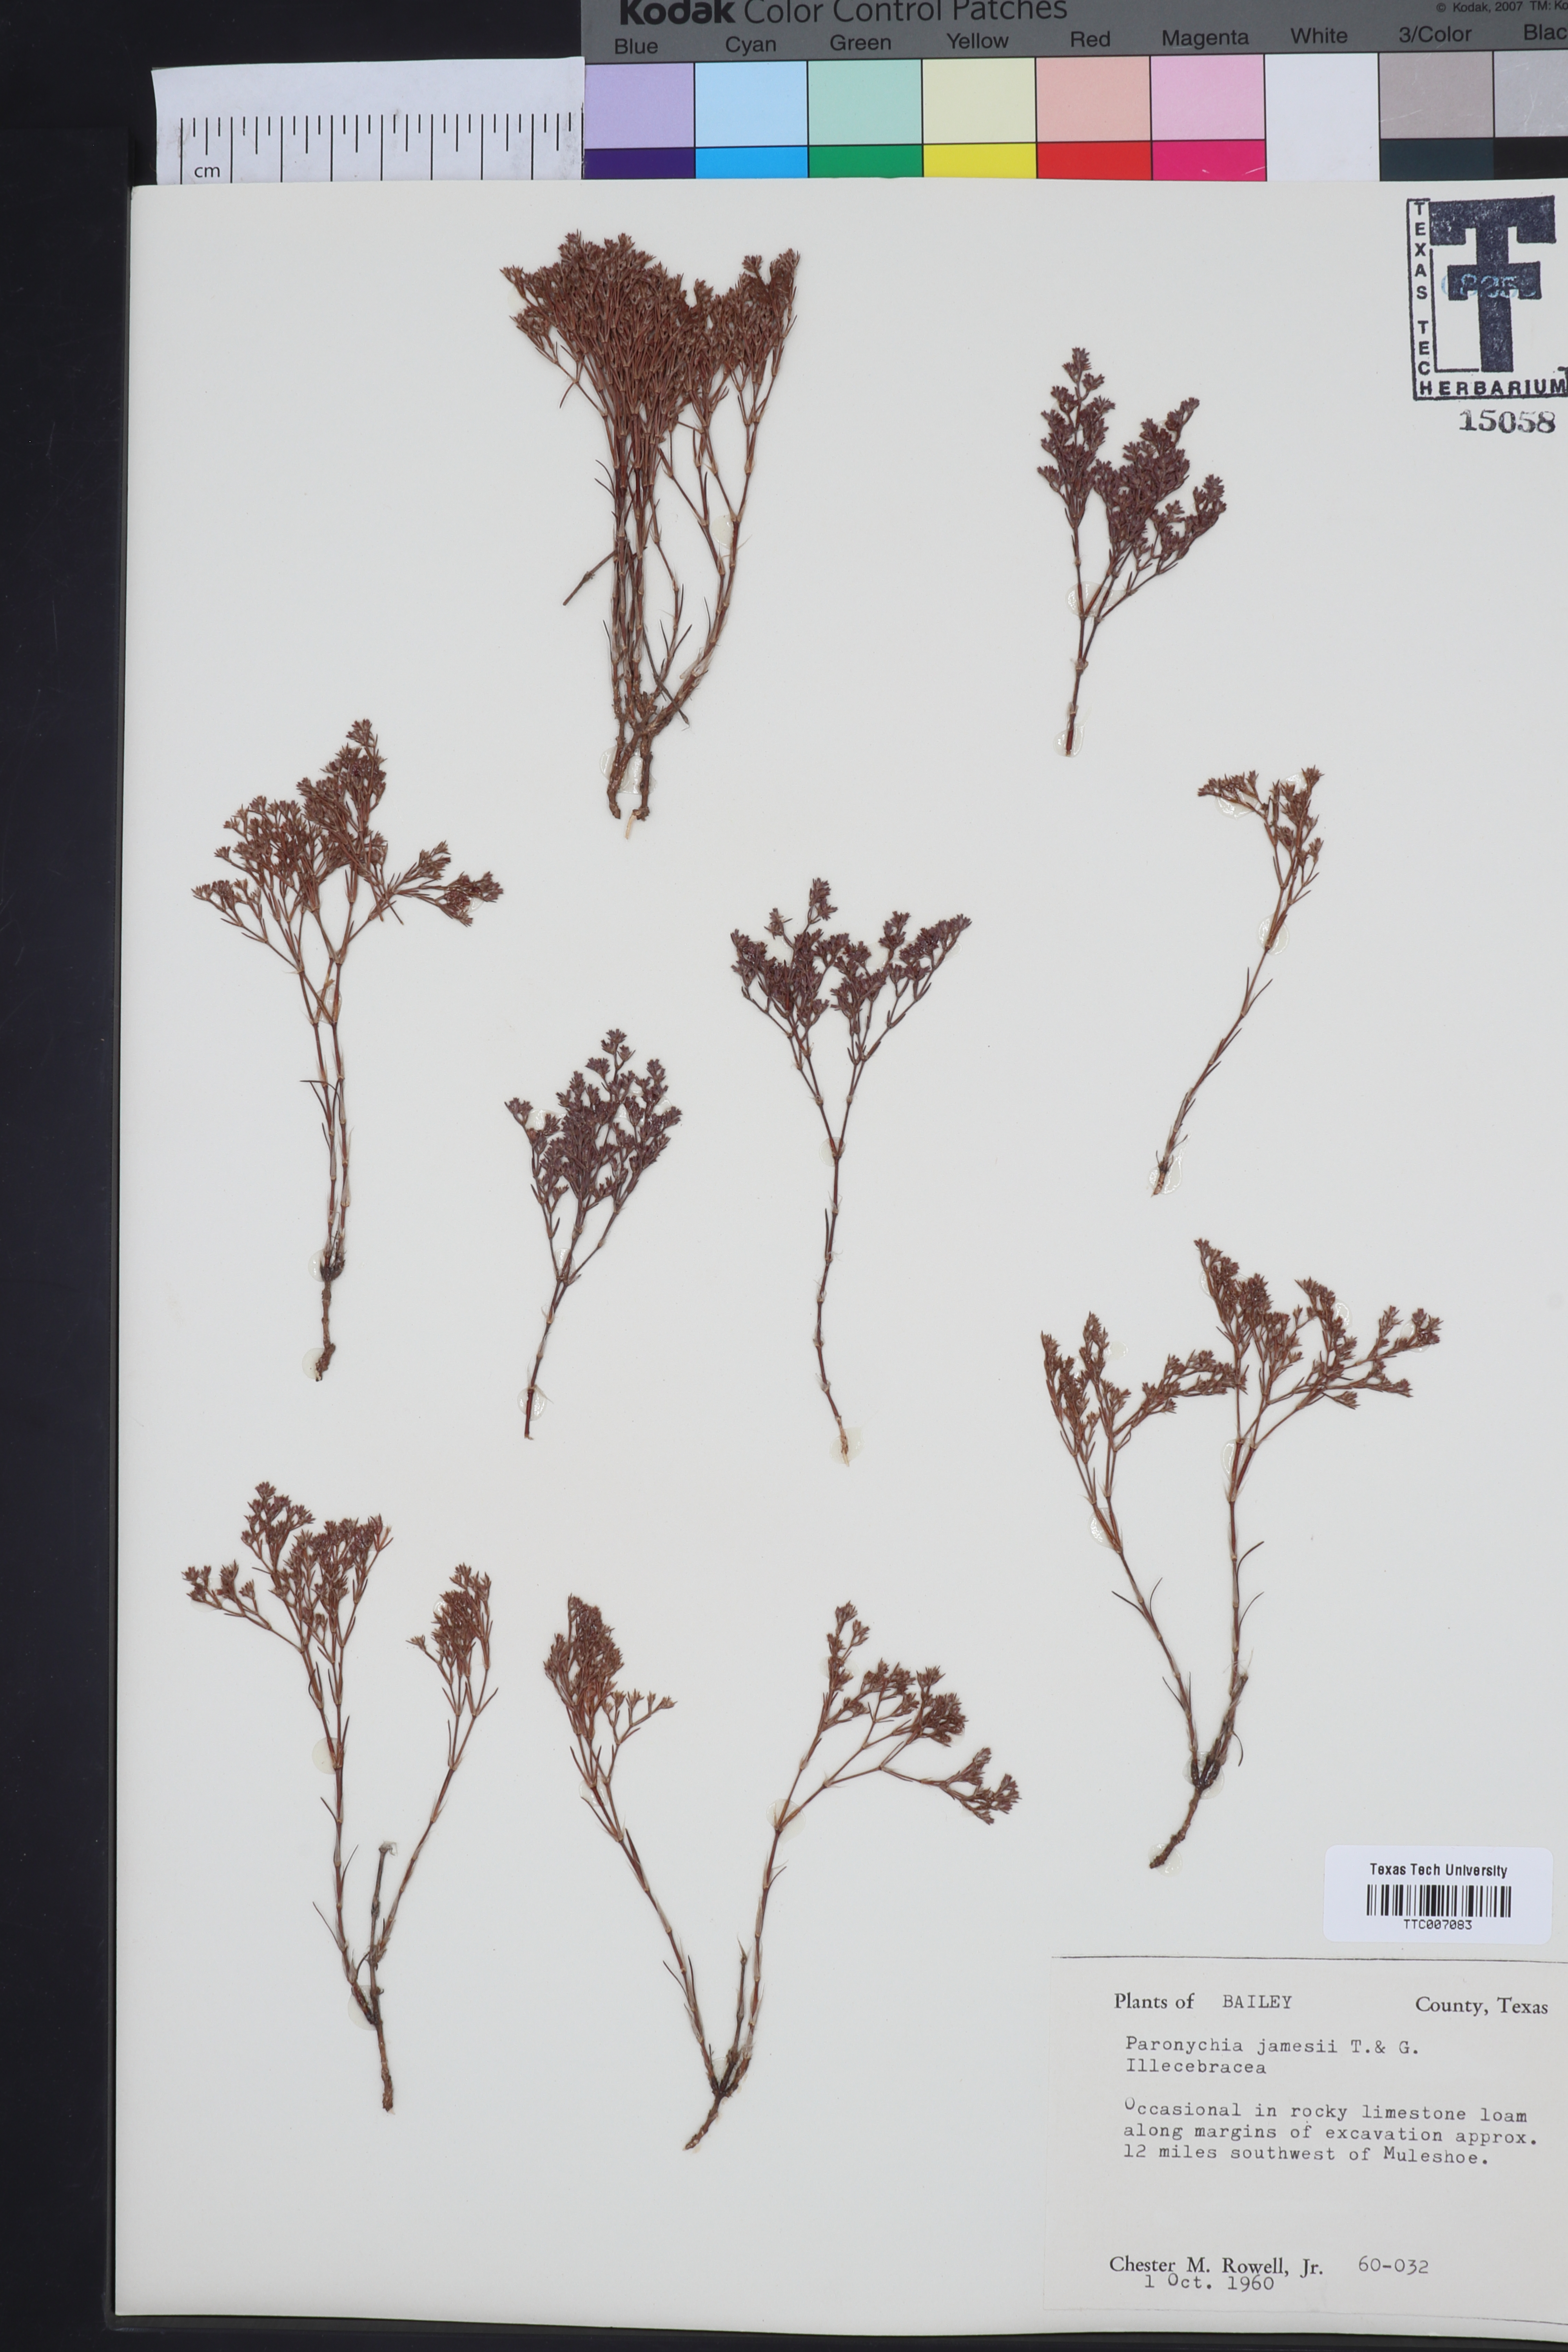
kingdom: Plantae
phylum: Tracheophyta
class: Magnoliopsida
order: Caryophyllales
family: Caryophyllaceae
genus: Paronychia
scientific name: Paronychia jamesii
